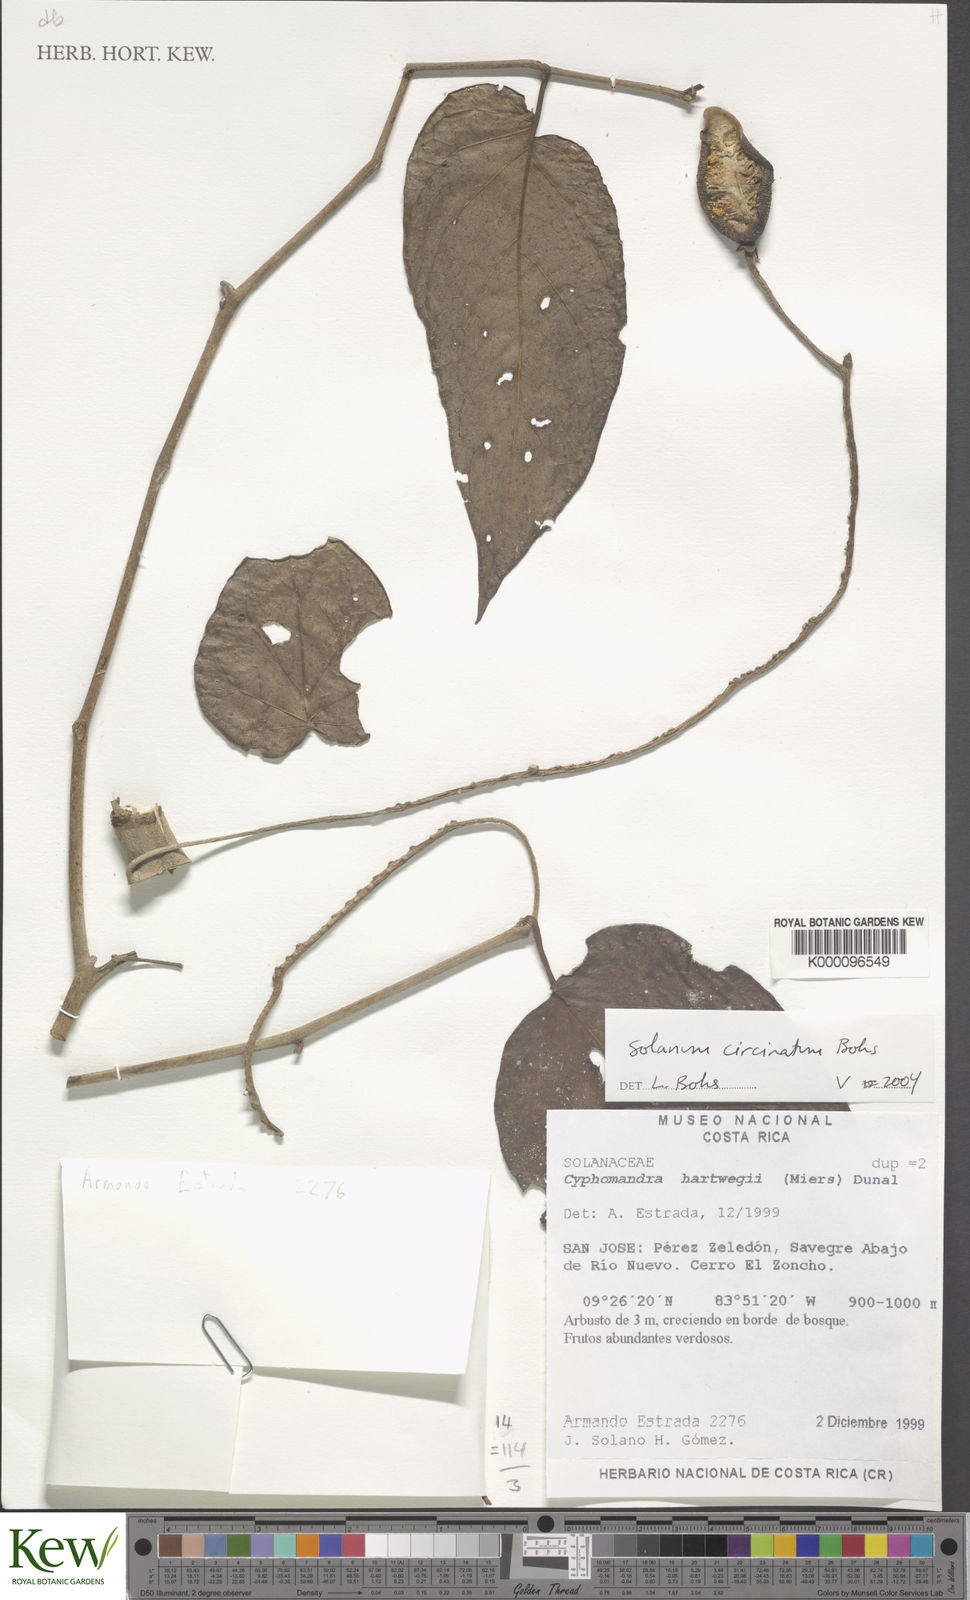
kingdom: Plantae
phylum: Tracheophyta
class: Magnoliopsida
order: Solanales
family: Solanaceae
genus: Solanum
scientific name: Solanum
